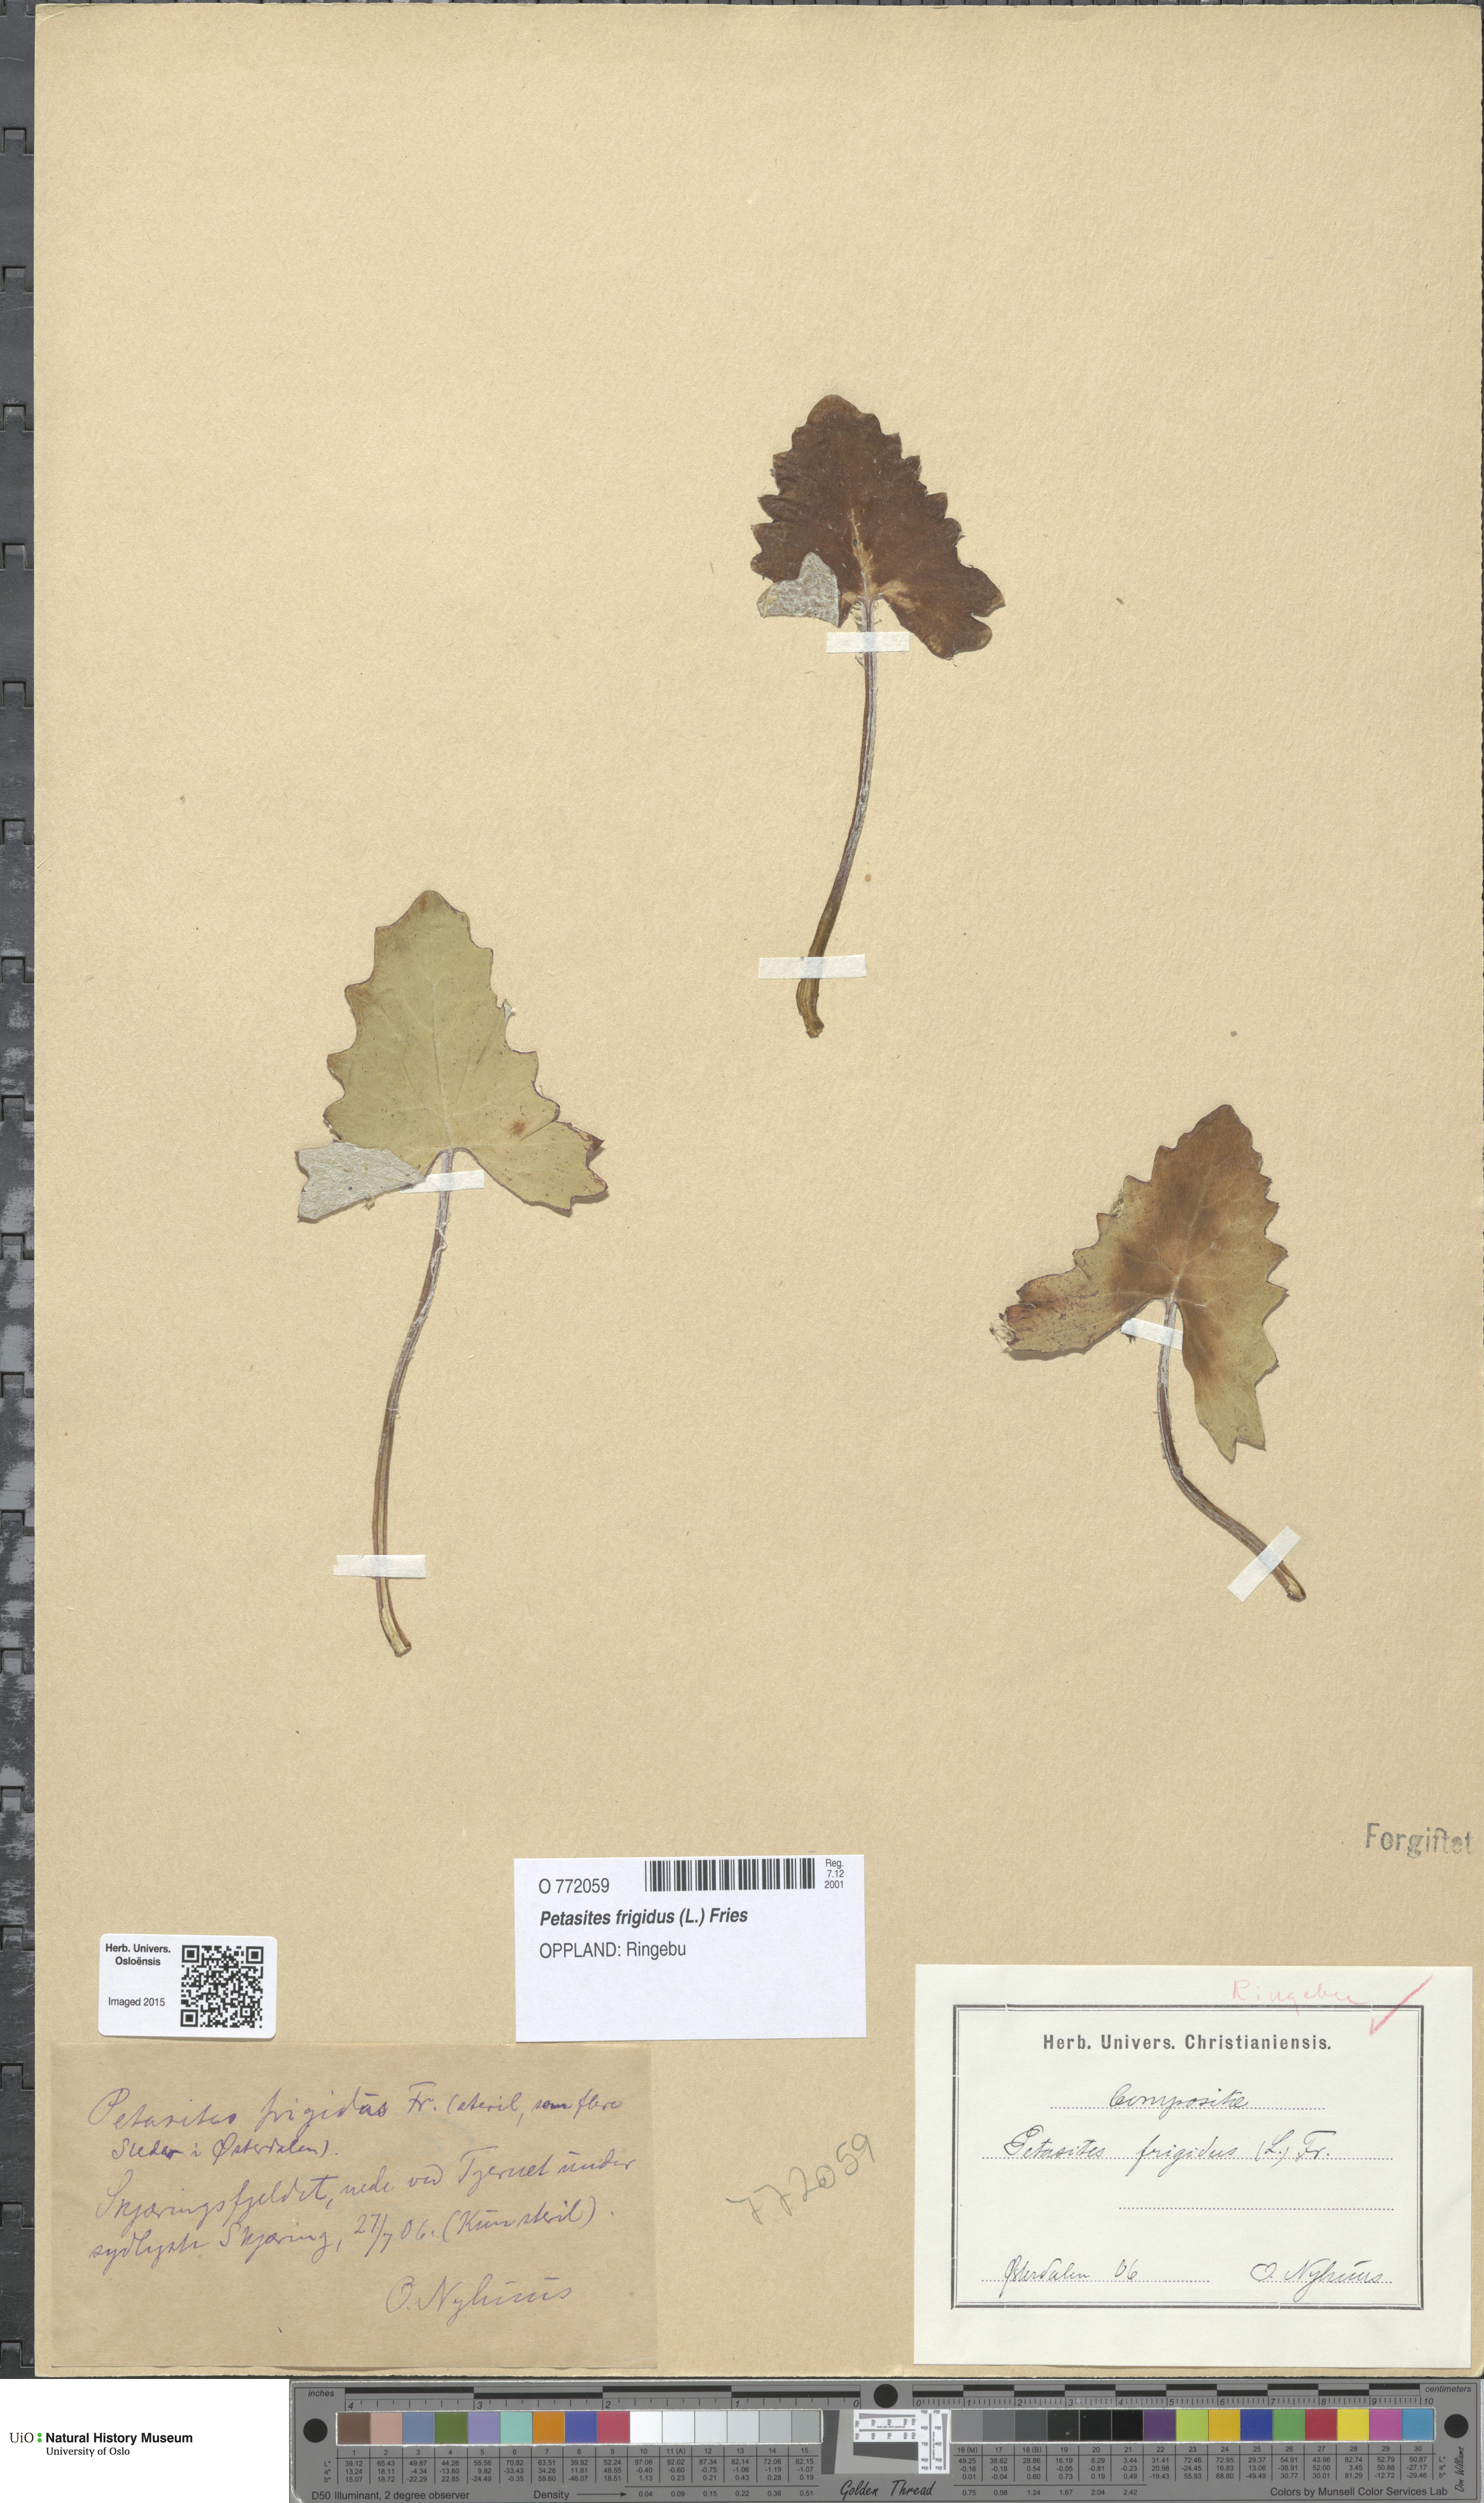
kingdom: Plantae
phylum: Tracheophyta
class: Magnoliopsida
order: Asterales
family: Asteraceae
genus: Petasites
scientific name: Petasites frigidus
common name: Arctic butterbur
